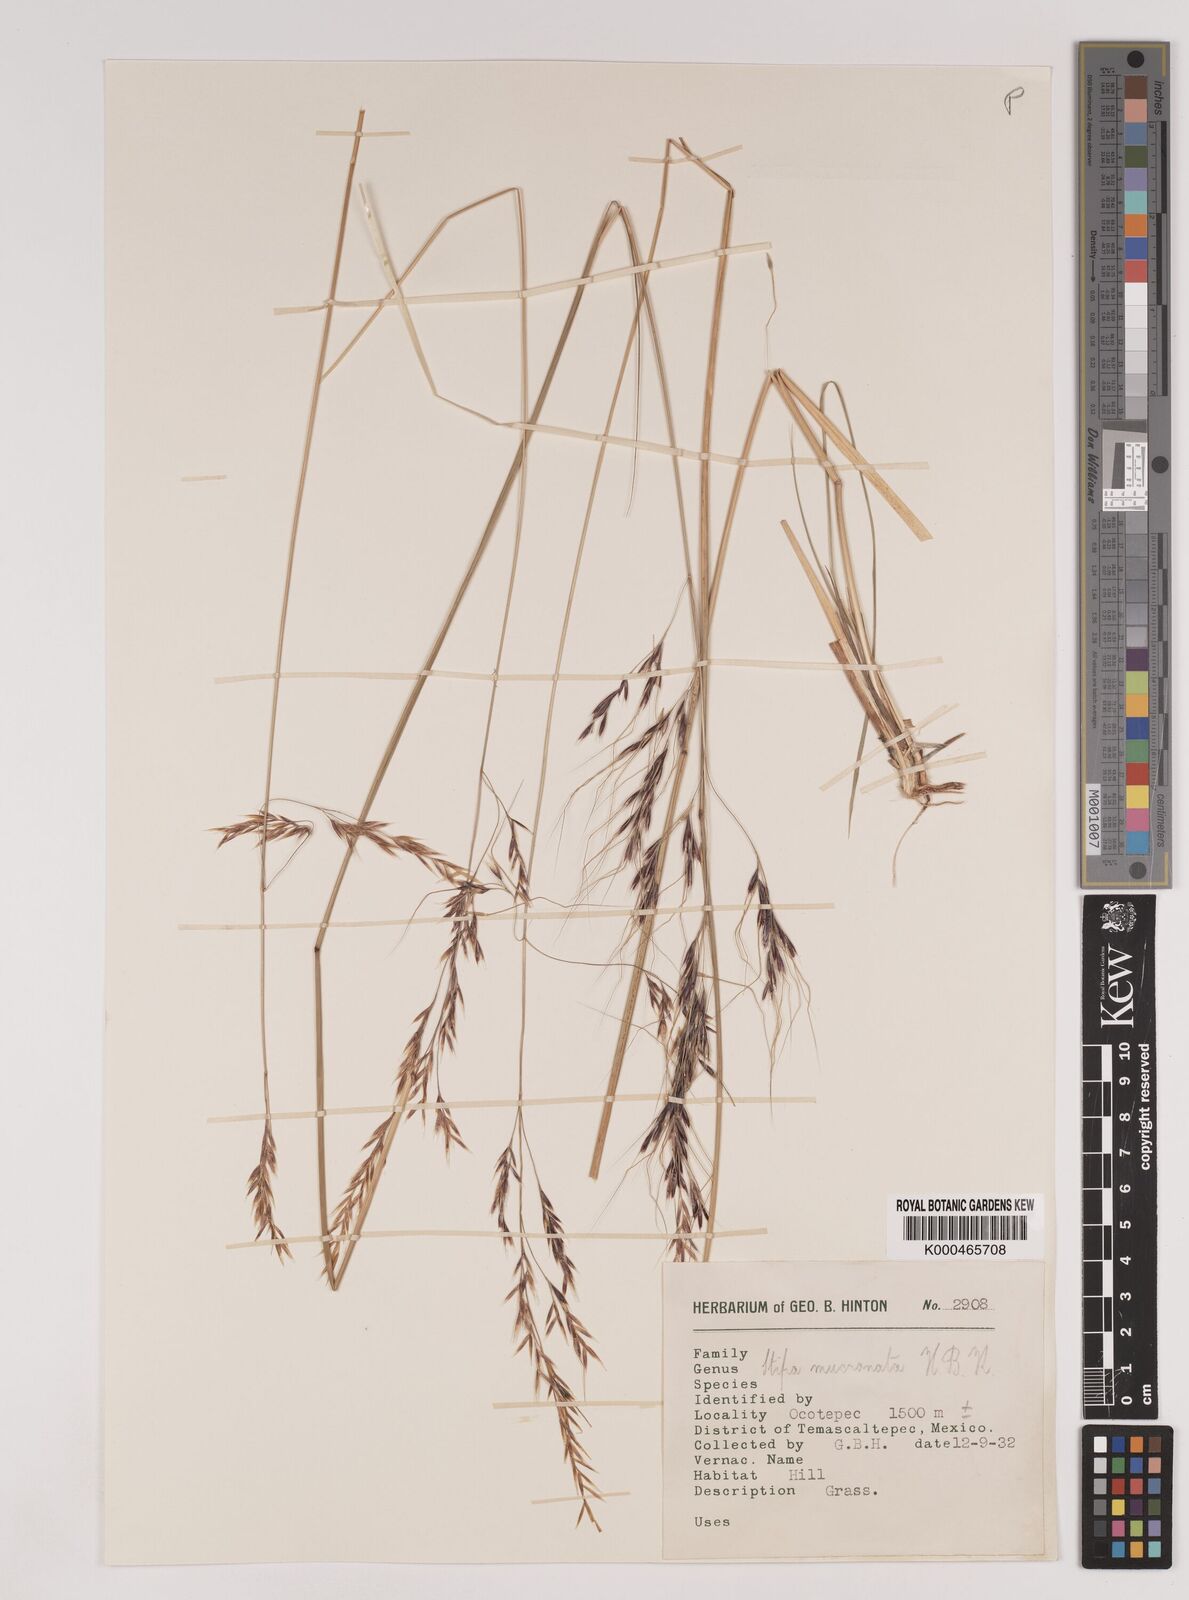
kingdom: Plantae
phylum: Tracheophyta
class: Liliopsida
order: Poales
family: Poaceae
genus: Nassella
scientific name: Nassella mucronata
